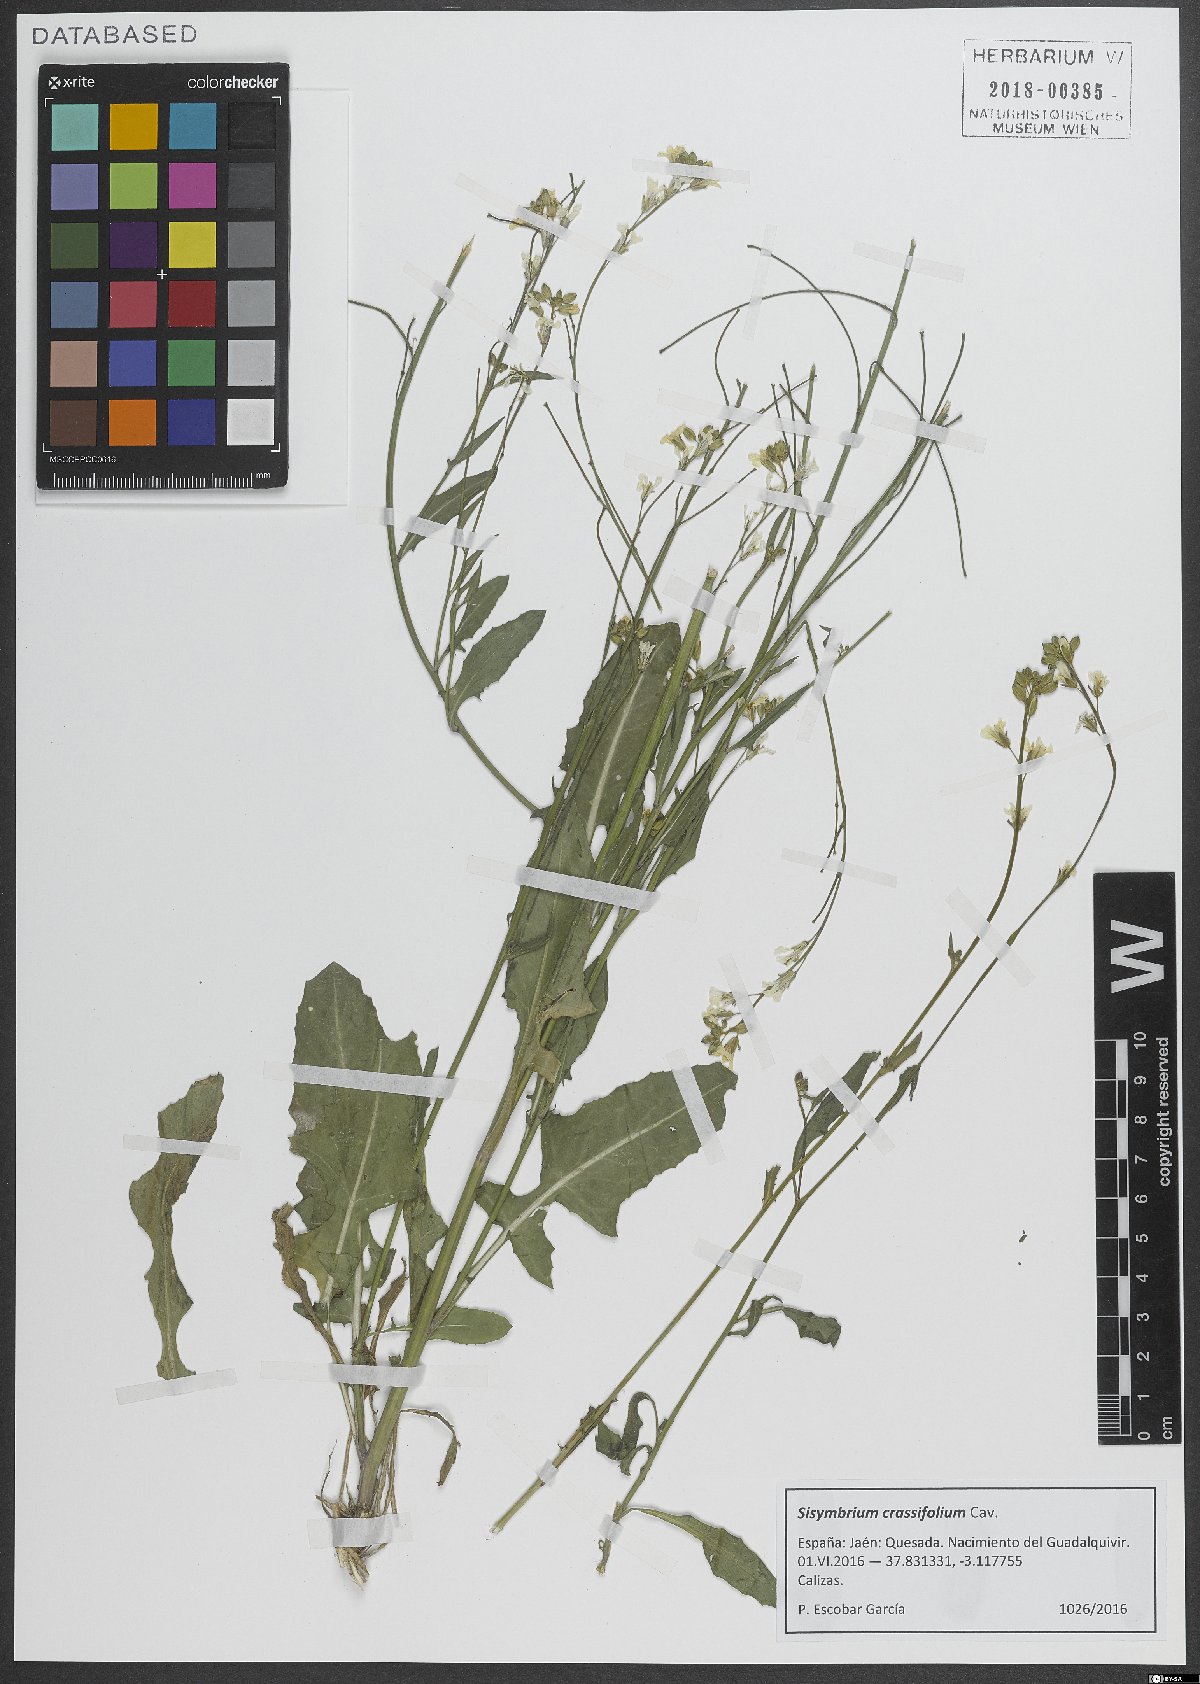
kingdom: Plantae
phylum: Tracheophyta
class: Magnoliopsida
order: Brassicales
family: Brassicaceae
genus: Sisymbrium
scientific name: Sisymbrium crassifolium
